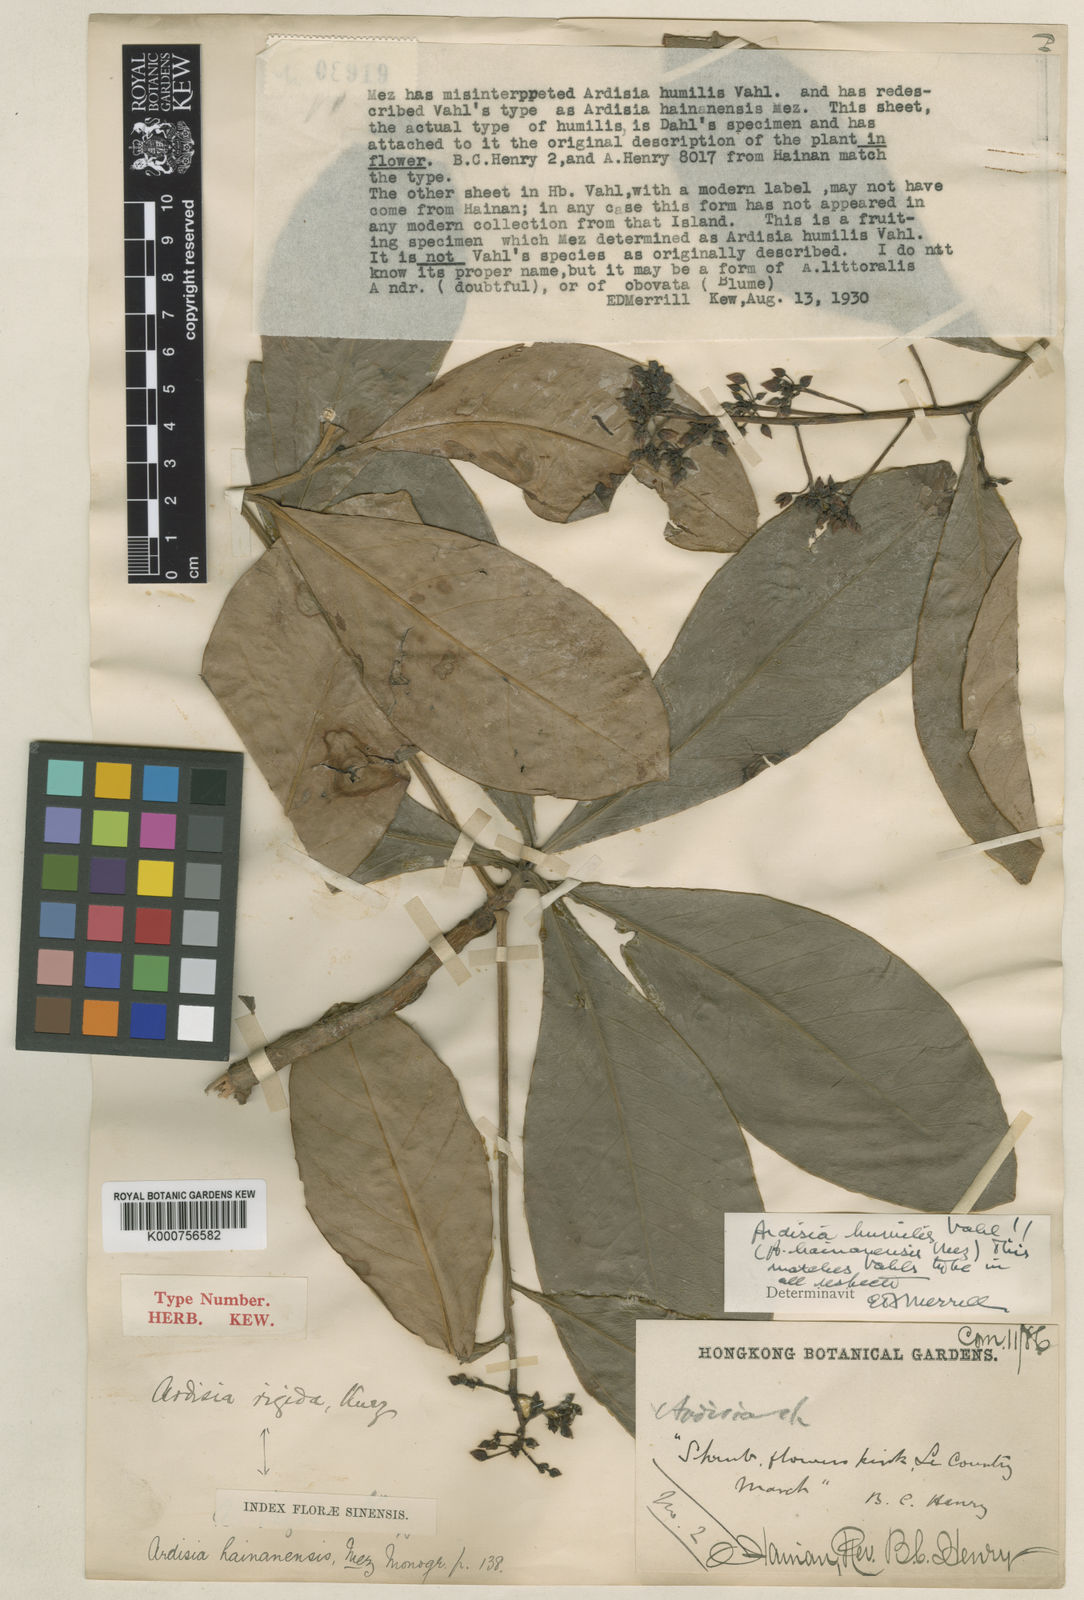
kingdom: Plantae
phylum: Tracheophyta
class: Magnoliopsida
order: Ericales
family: Primulaceae
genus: Ardisia
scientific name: Ardisia humilis
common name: Low shoebutton
